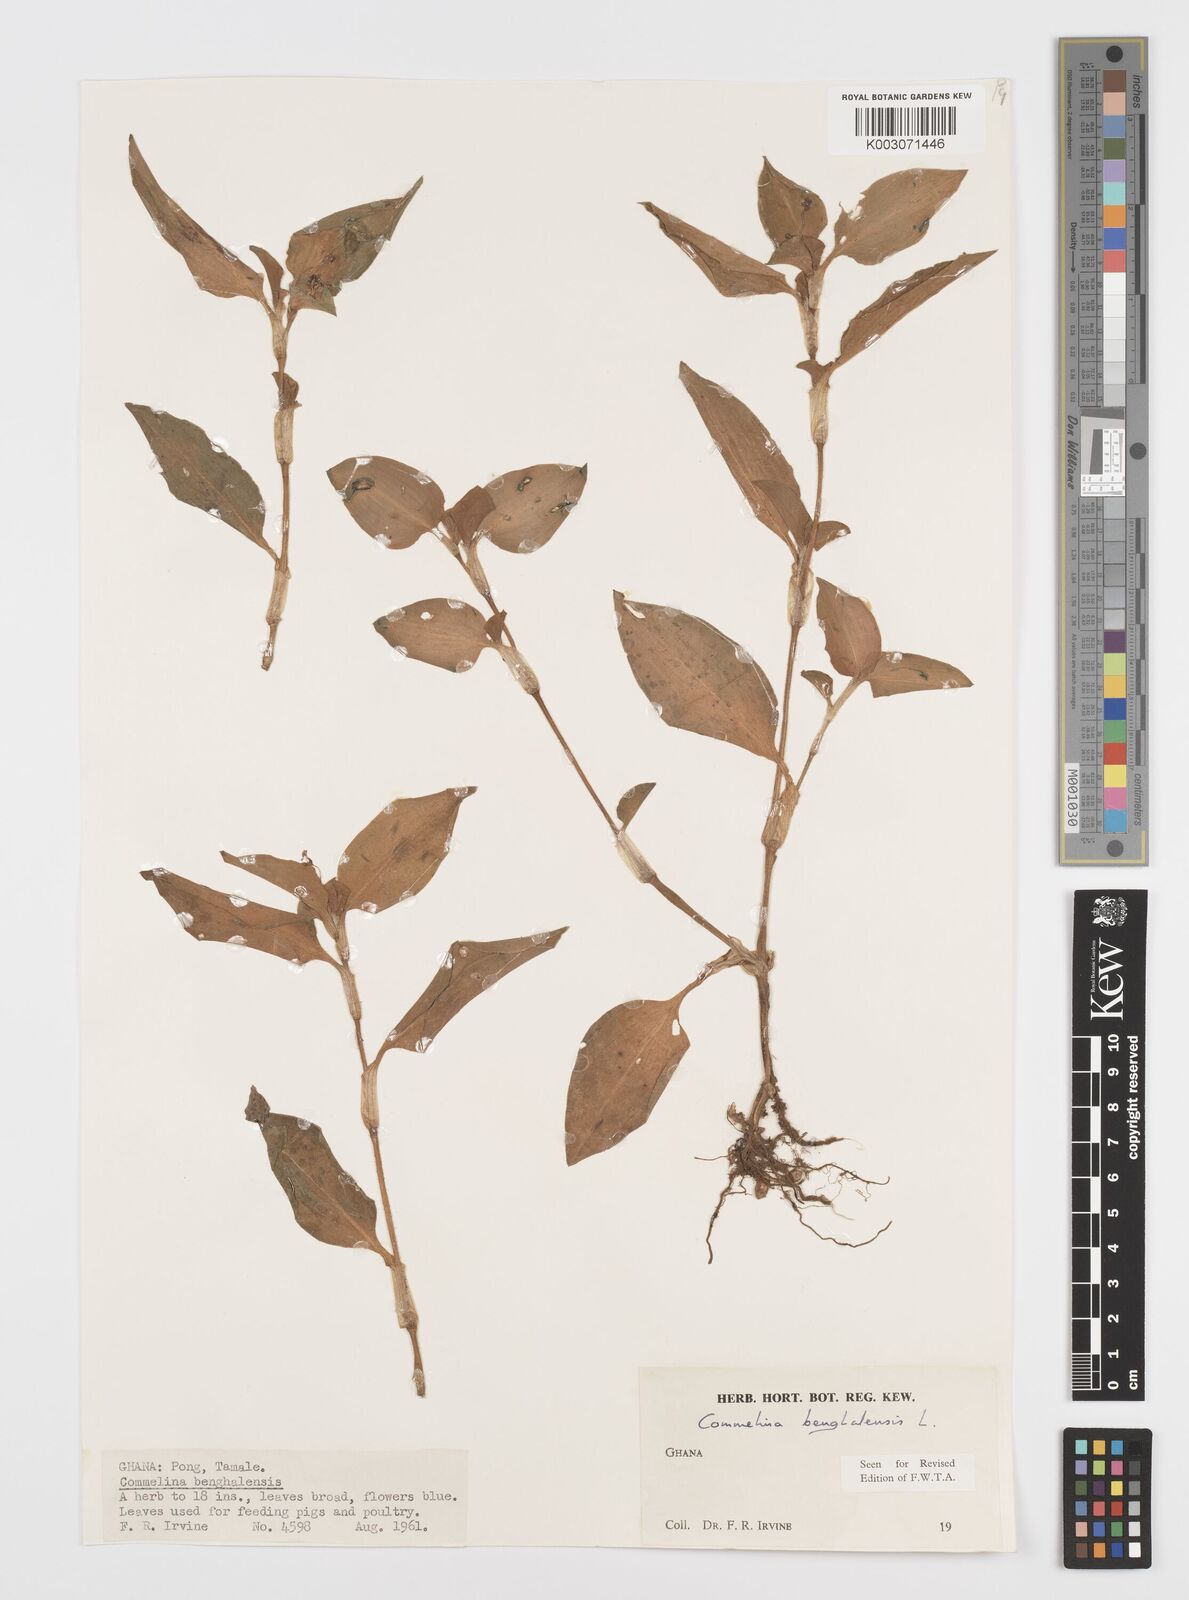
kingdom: Plantae
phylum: Tracheophyta
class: Liliopsida
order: Commelinales
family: Commelinaceae
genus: Commelina
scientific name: Commelina benghalensis
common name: Jio
